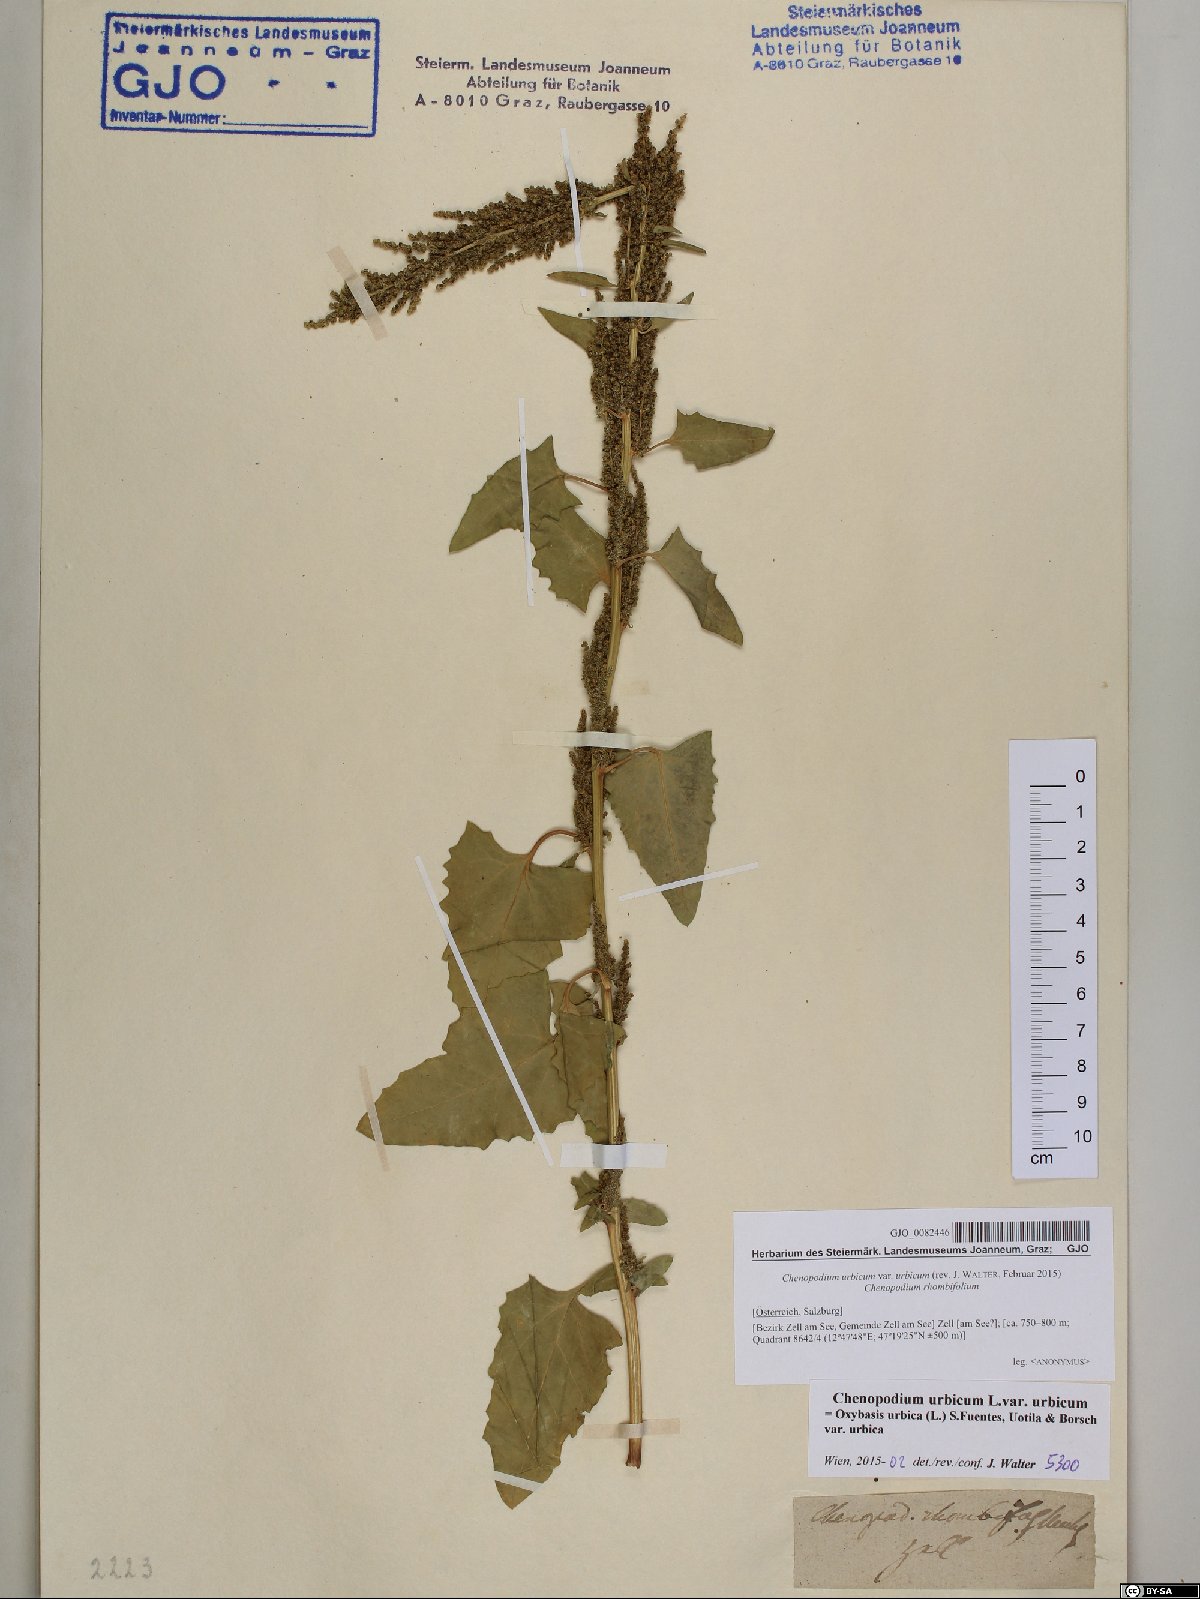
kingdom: Plantae
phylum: Tracheophyta
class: Magnoliopsida
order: Caryophyllales
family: Amaranthaceae
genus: Oxybasis
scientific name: Oxybasis urbica
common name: City goosefoot
